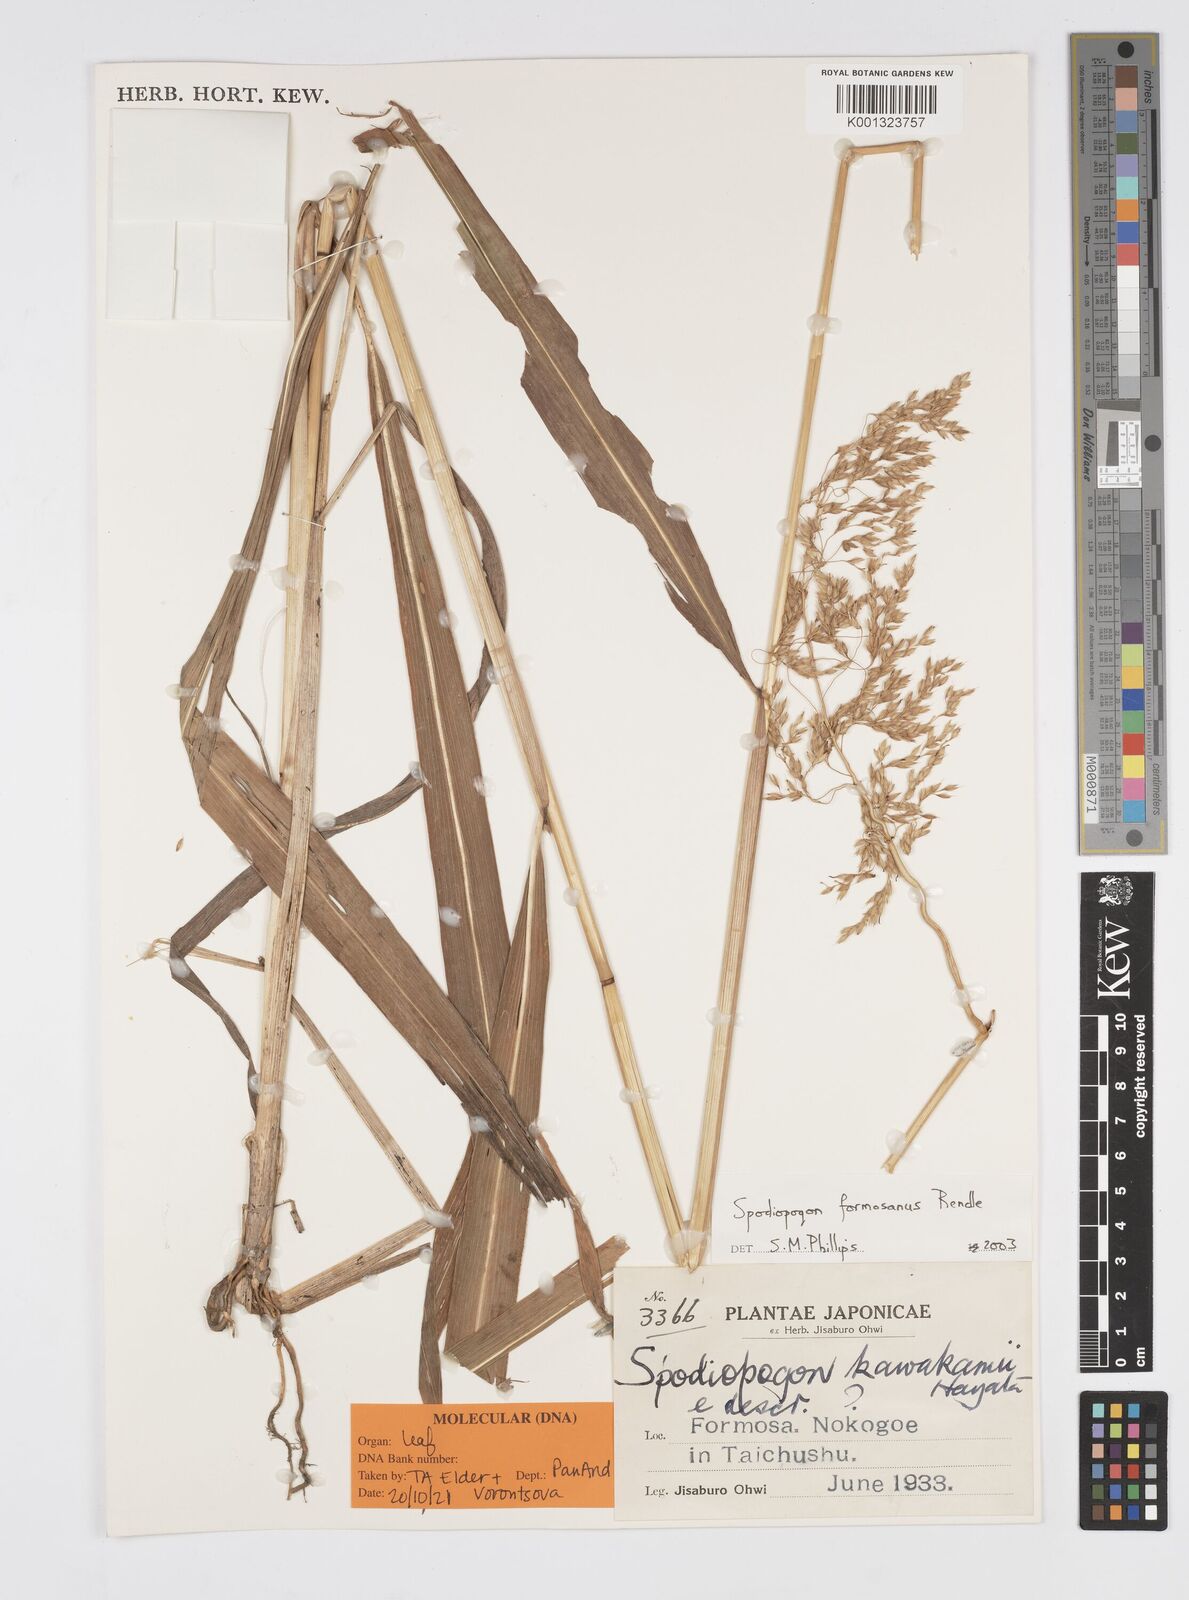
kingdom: Plantae
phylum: Tracheophyta
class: Liliopsida
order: Poales
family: Poaceae
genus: Spodiopogon
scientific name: Spodiopogon formosanus
